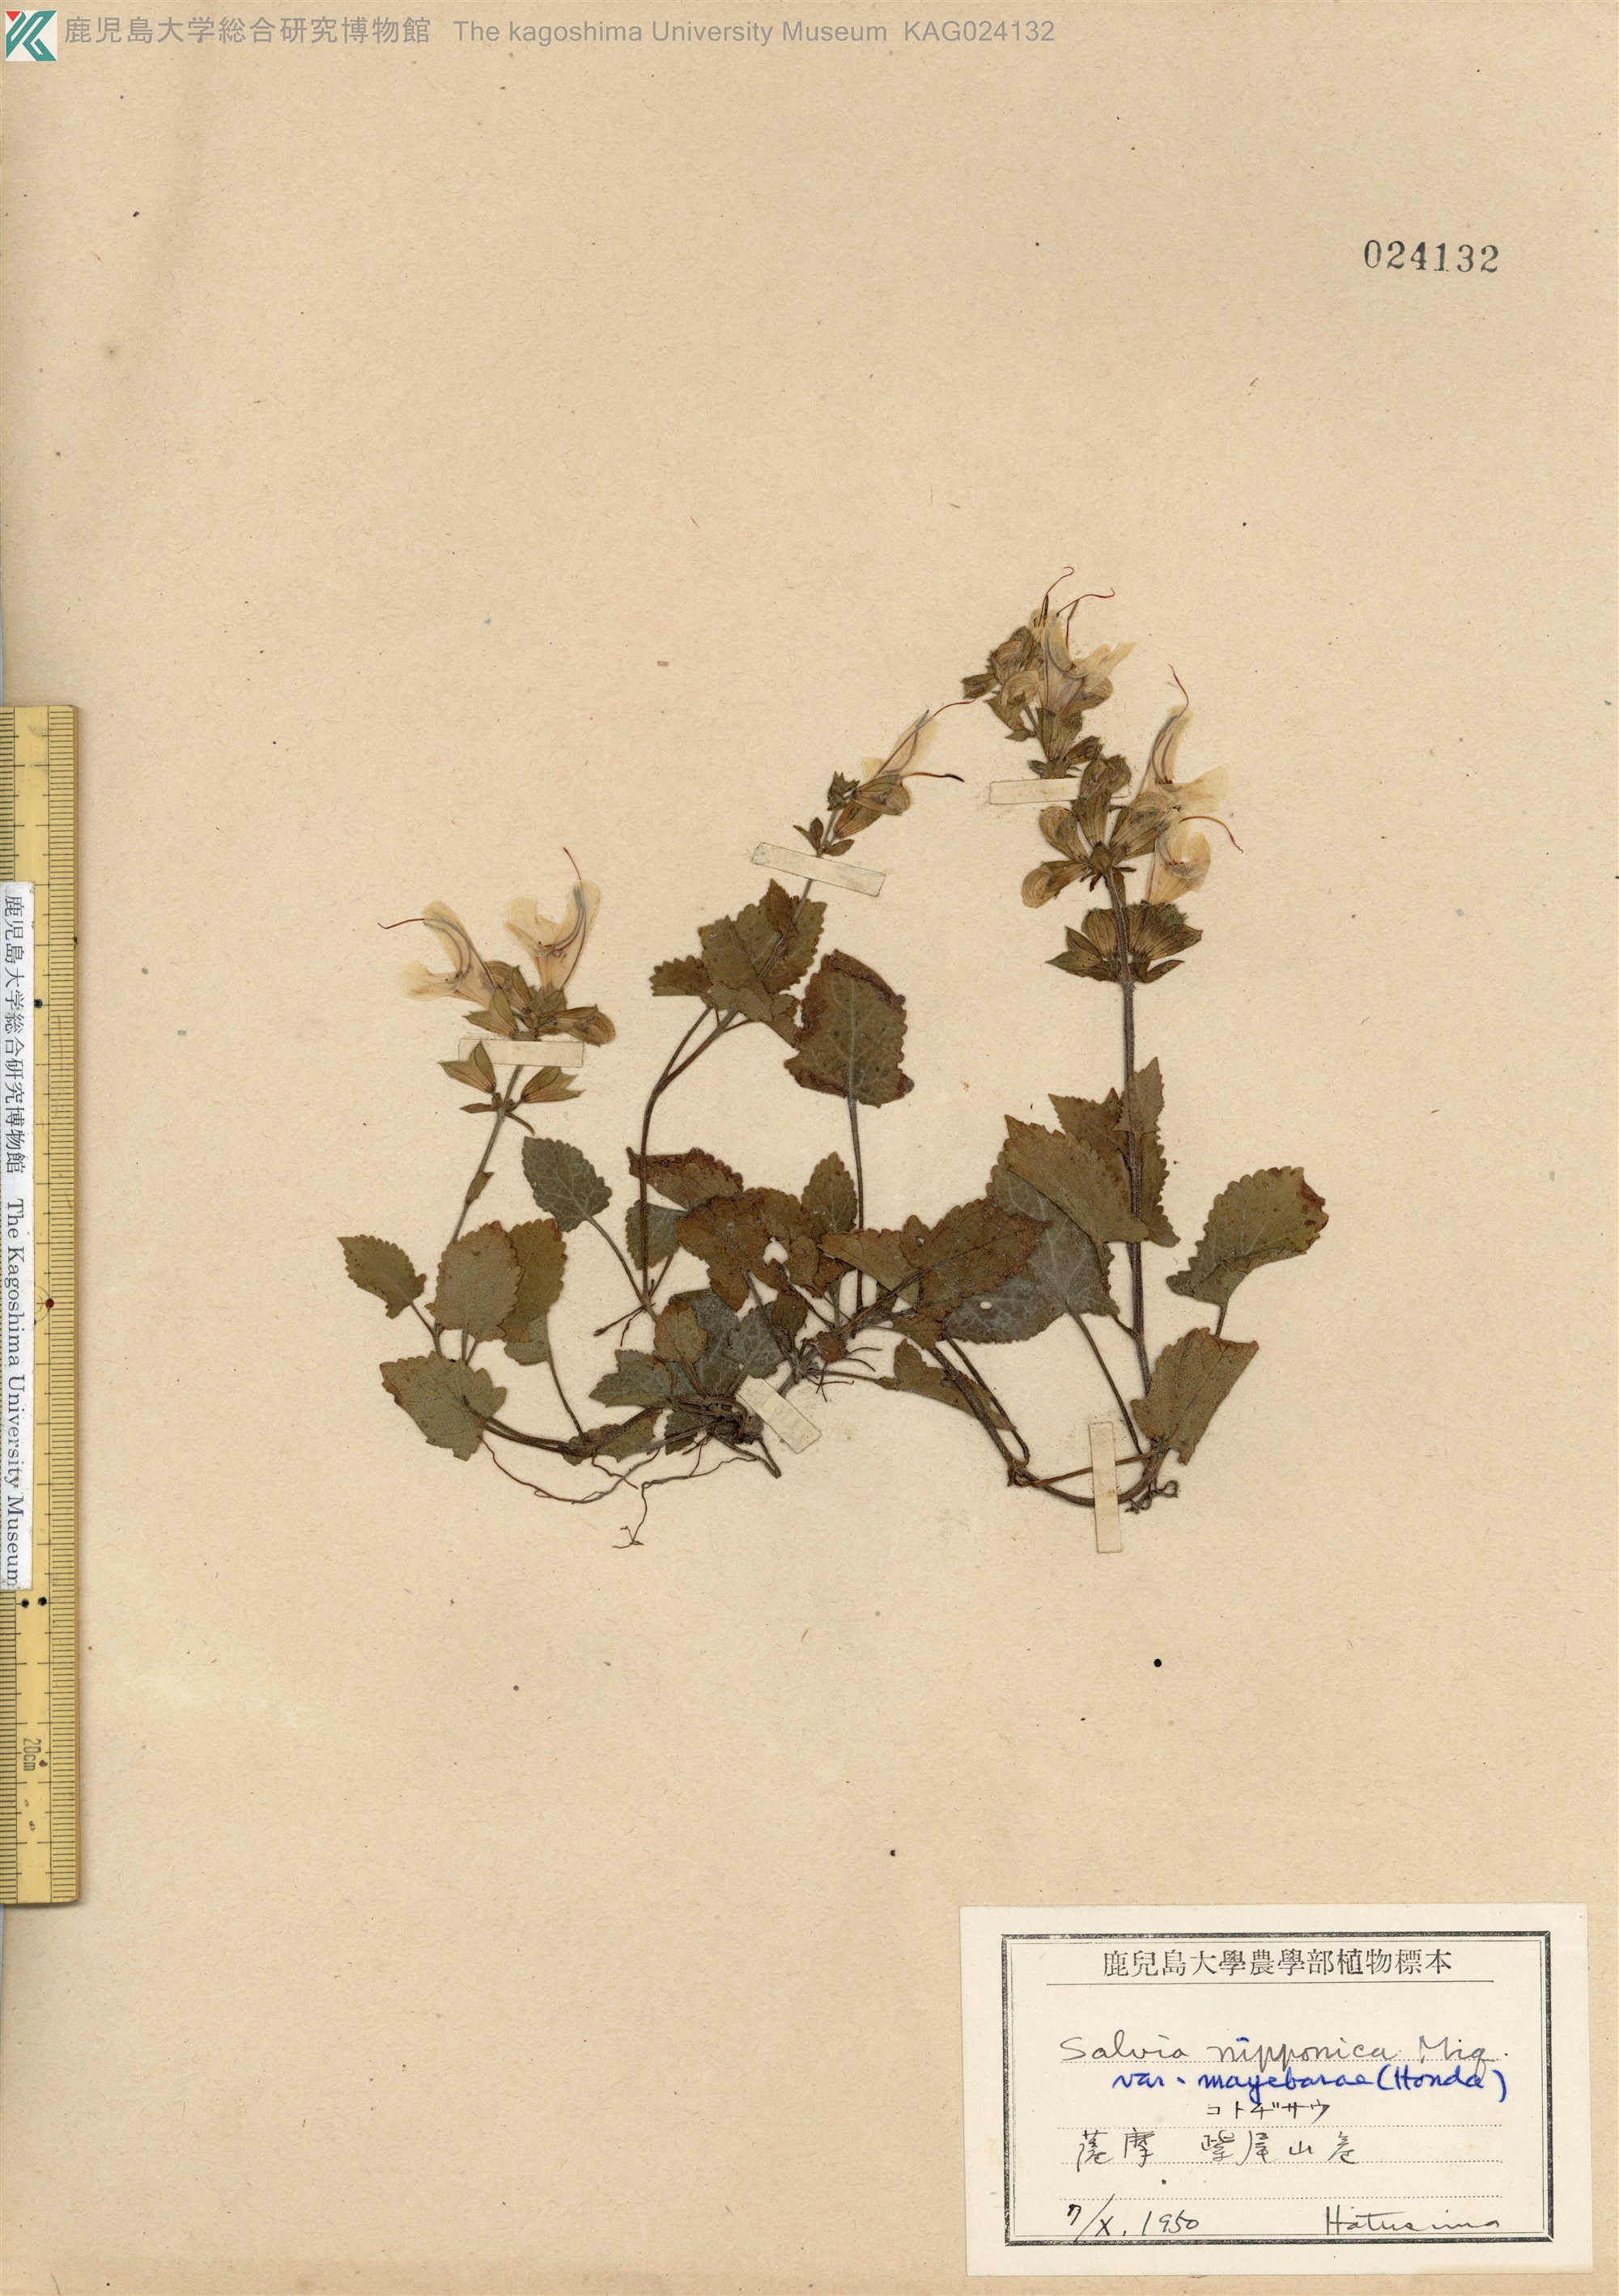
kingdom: Plantae
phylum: Tracheophyta
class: Magnoliopsida
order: Lamiales
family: Lamiaceae
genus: Salvia
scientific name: Salvia nipponica
